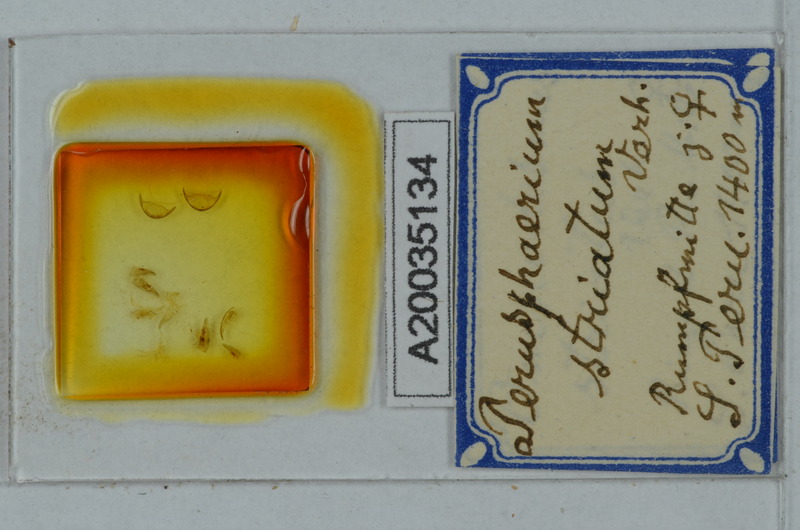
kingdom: Animalia
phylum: Arthropoda
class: Diplopoda
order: Polydesmida
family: Oniscodesmidae
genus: Perusphaerium
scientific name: Perusphaerium striatum
